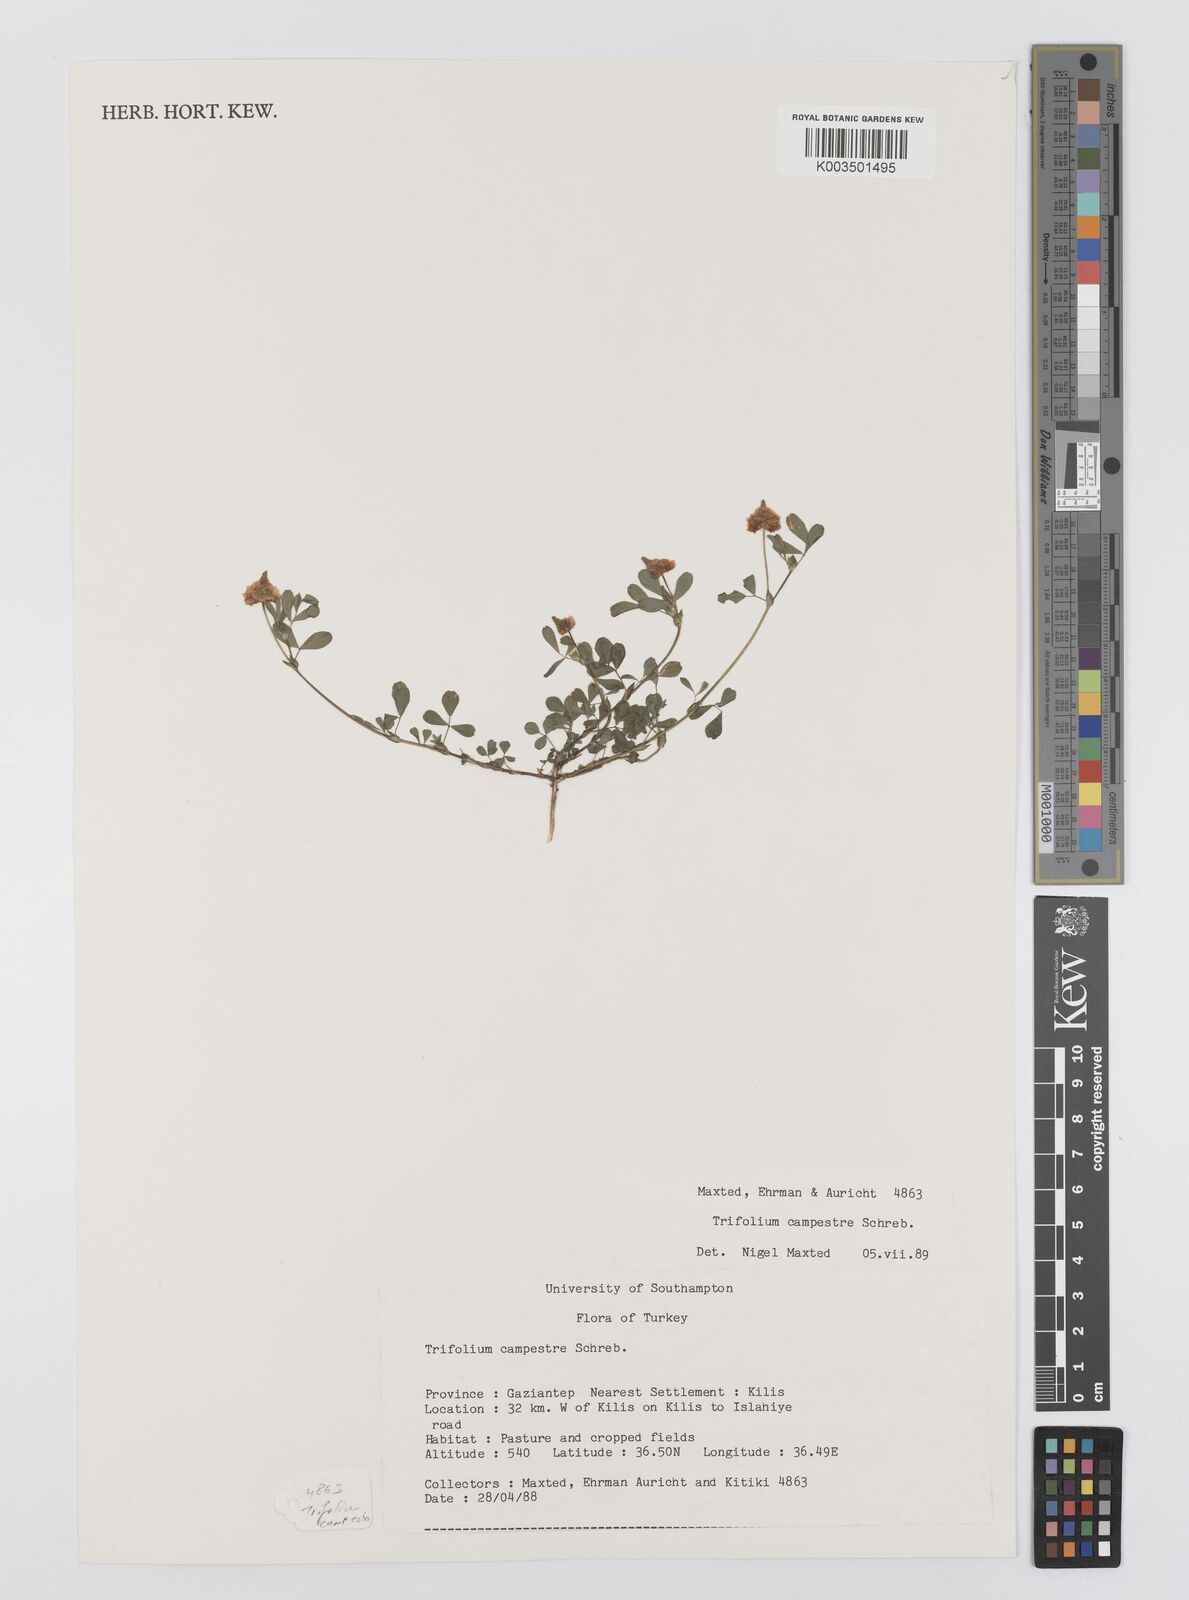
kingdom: Plantae
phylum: Tracheophyta
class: Magnoliopsida
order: Fabales
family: Fabaceae
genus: Trifolium
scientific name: Trifolium campestre
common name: Field clover
